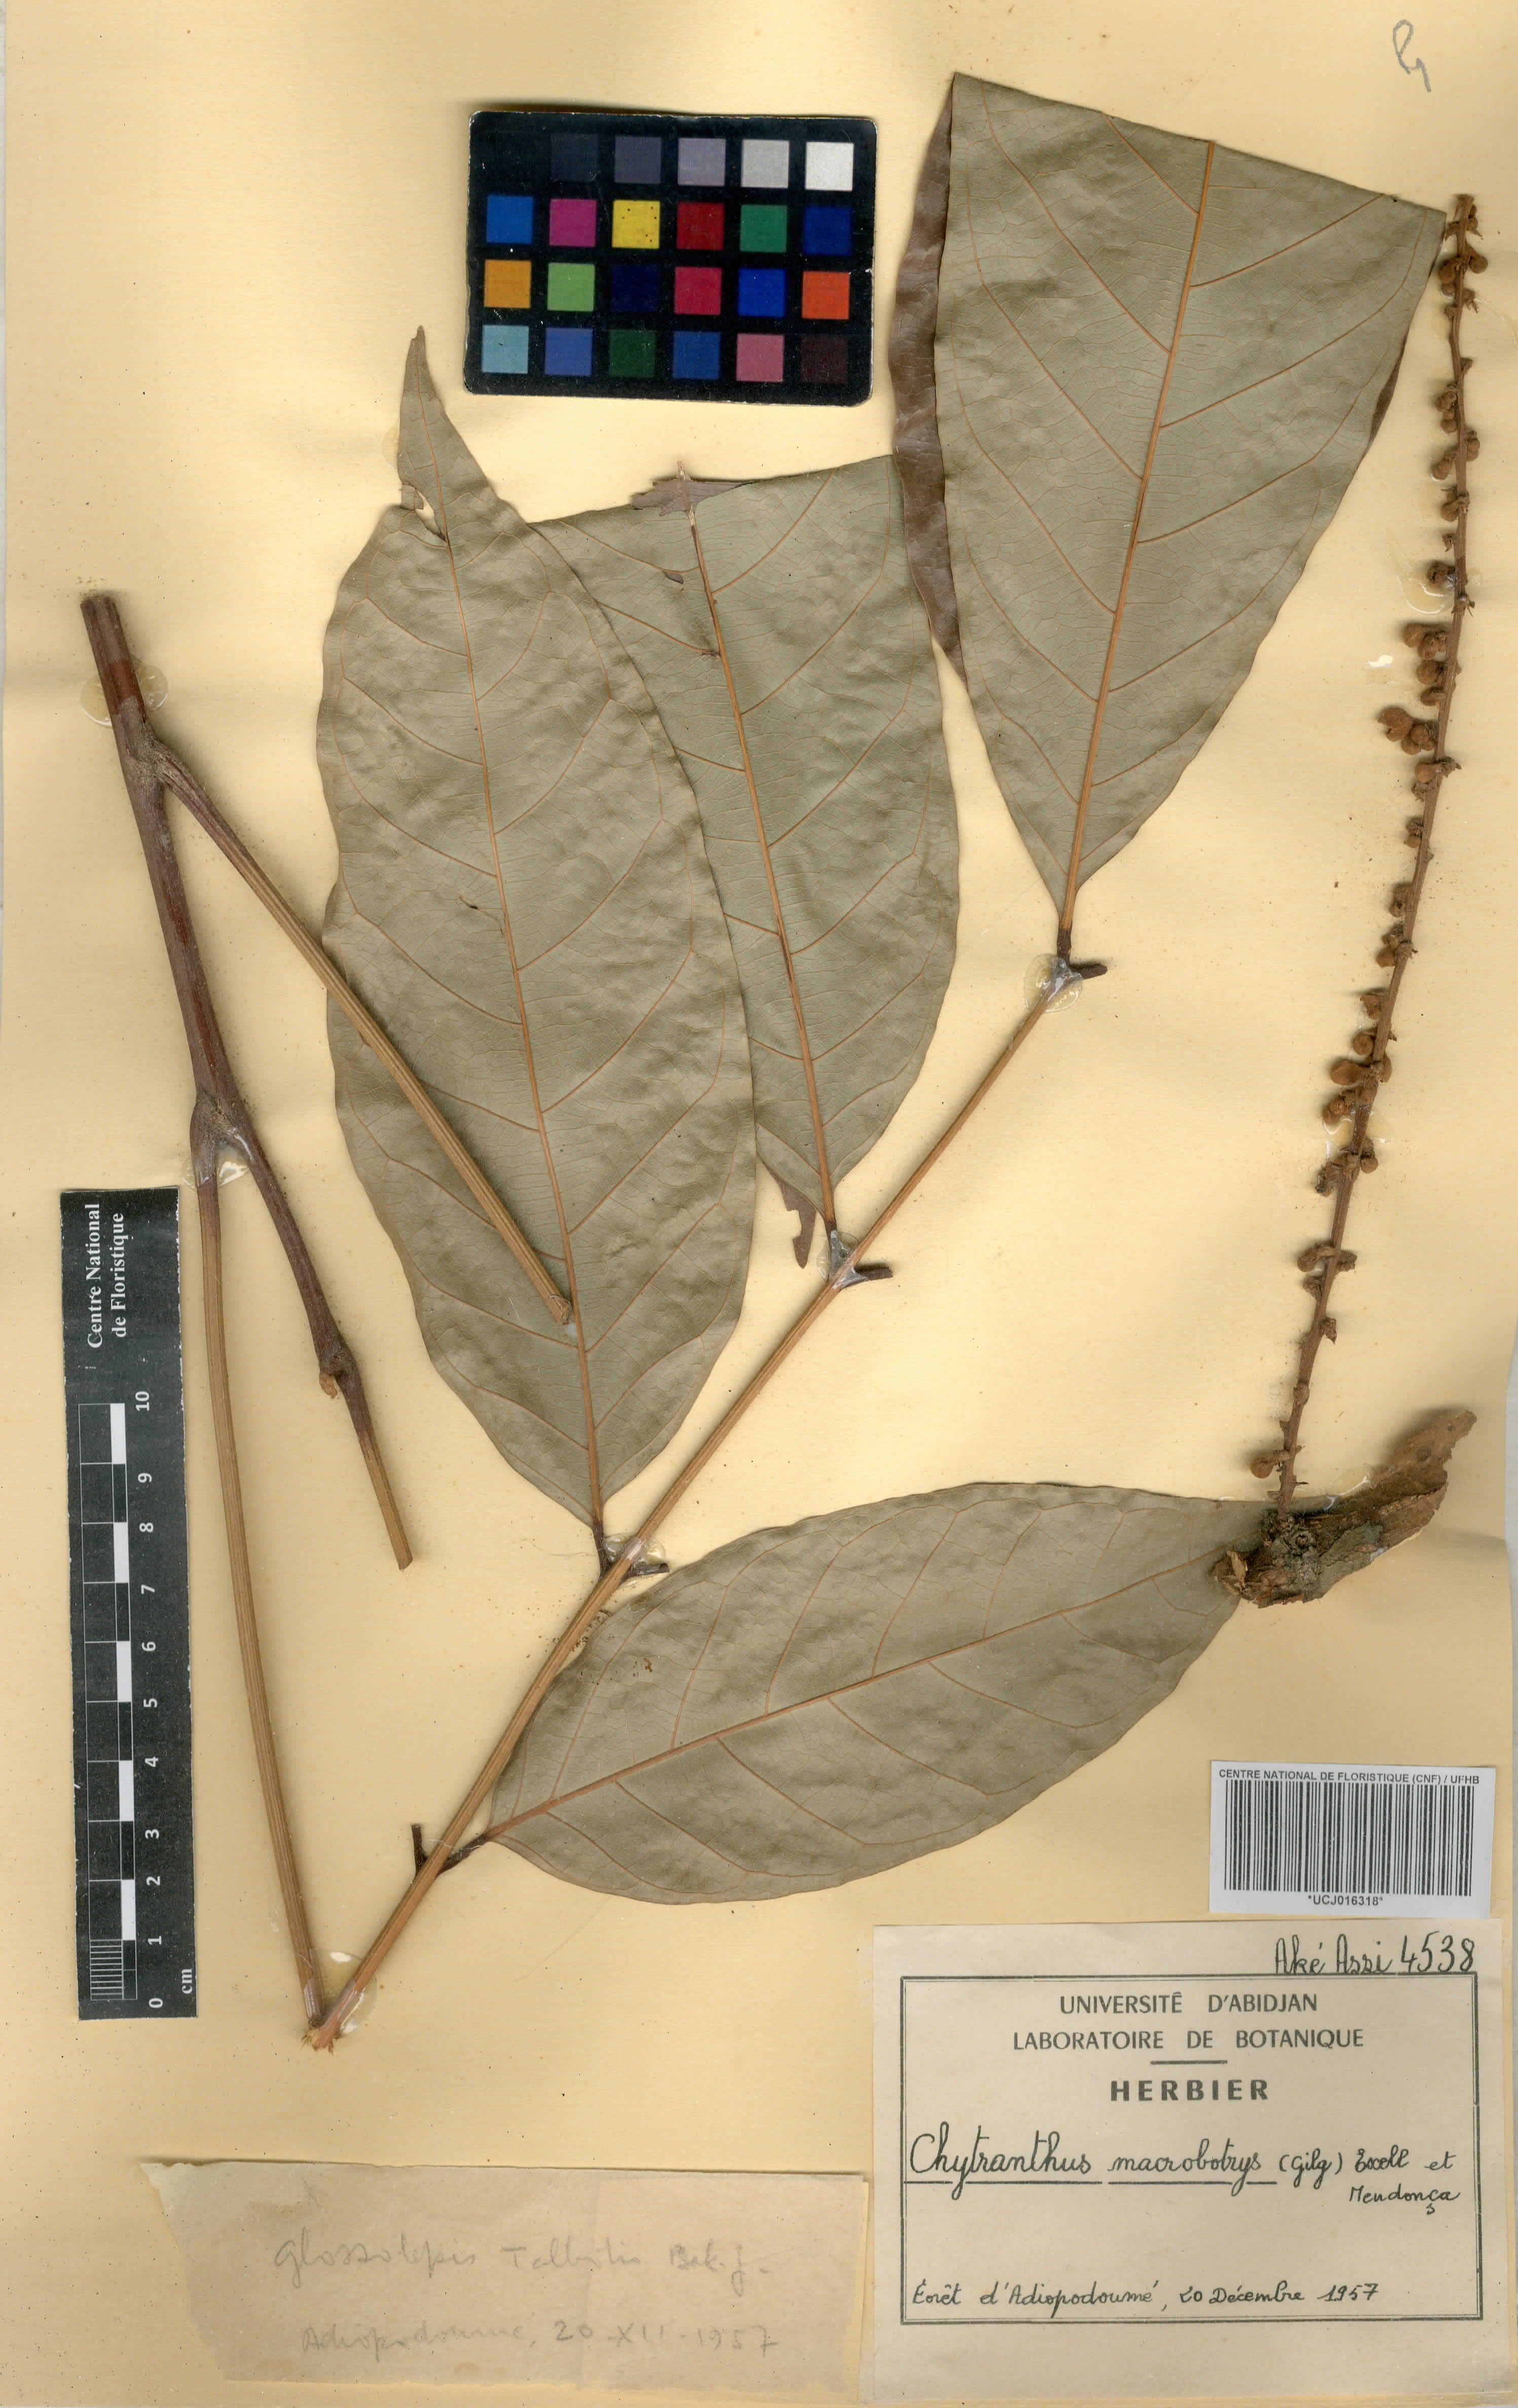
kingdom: Plantae
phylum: Tracheophyta
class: Magnoliopsida
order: Sapindales
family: Sapindaceae
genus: Chytranthus
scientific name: Chytranthus macrobotrys
